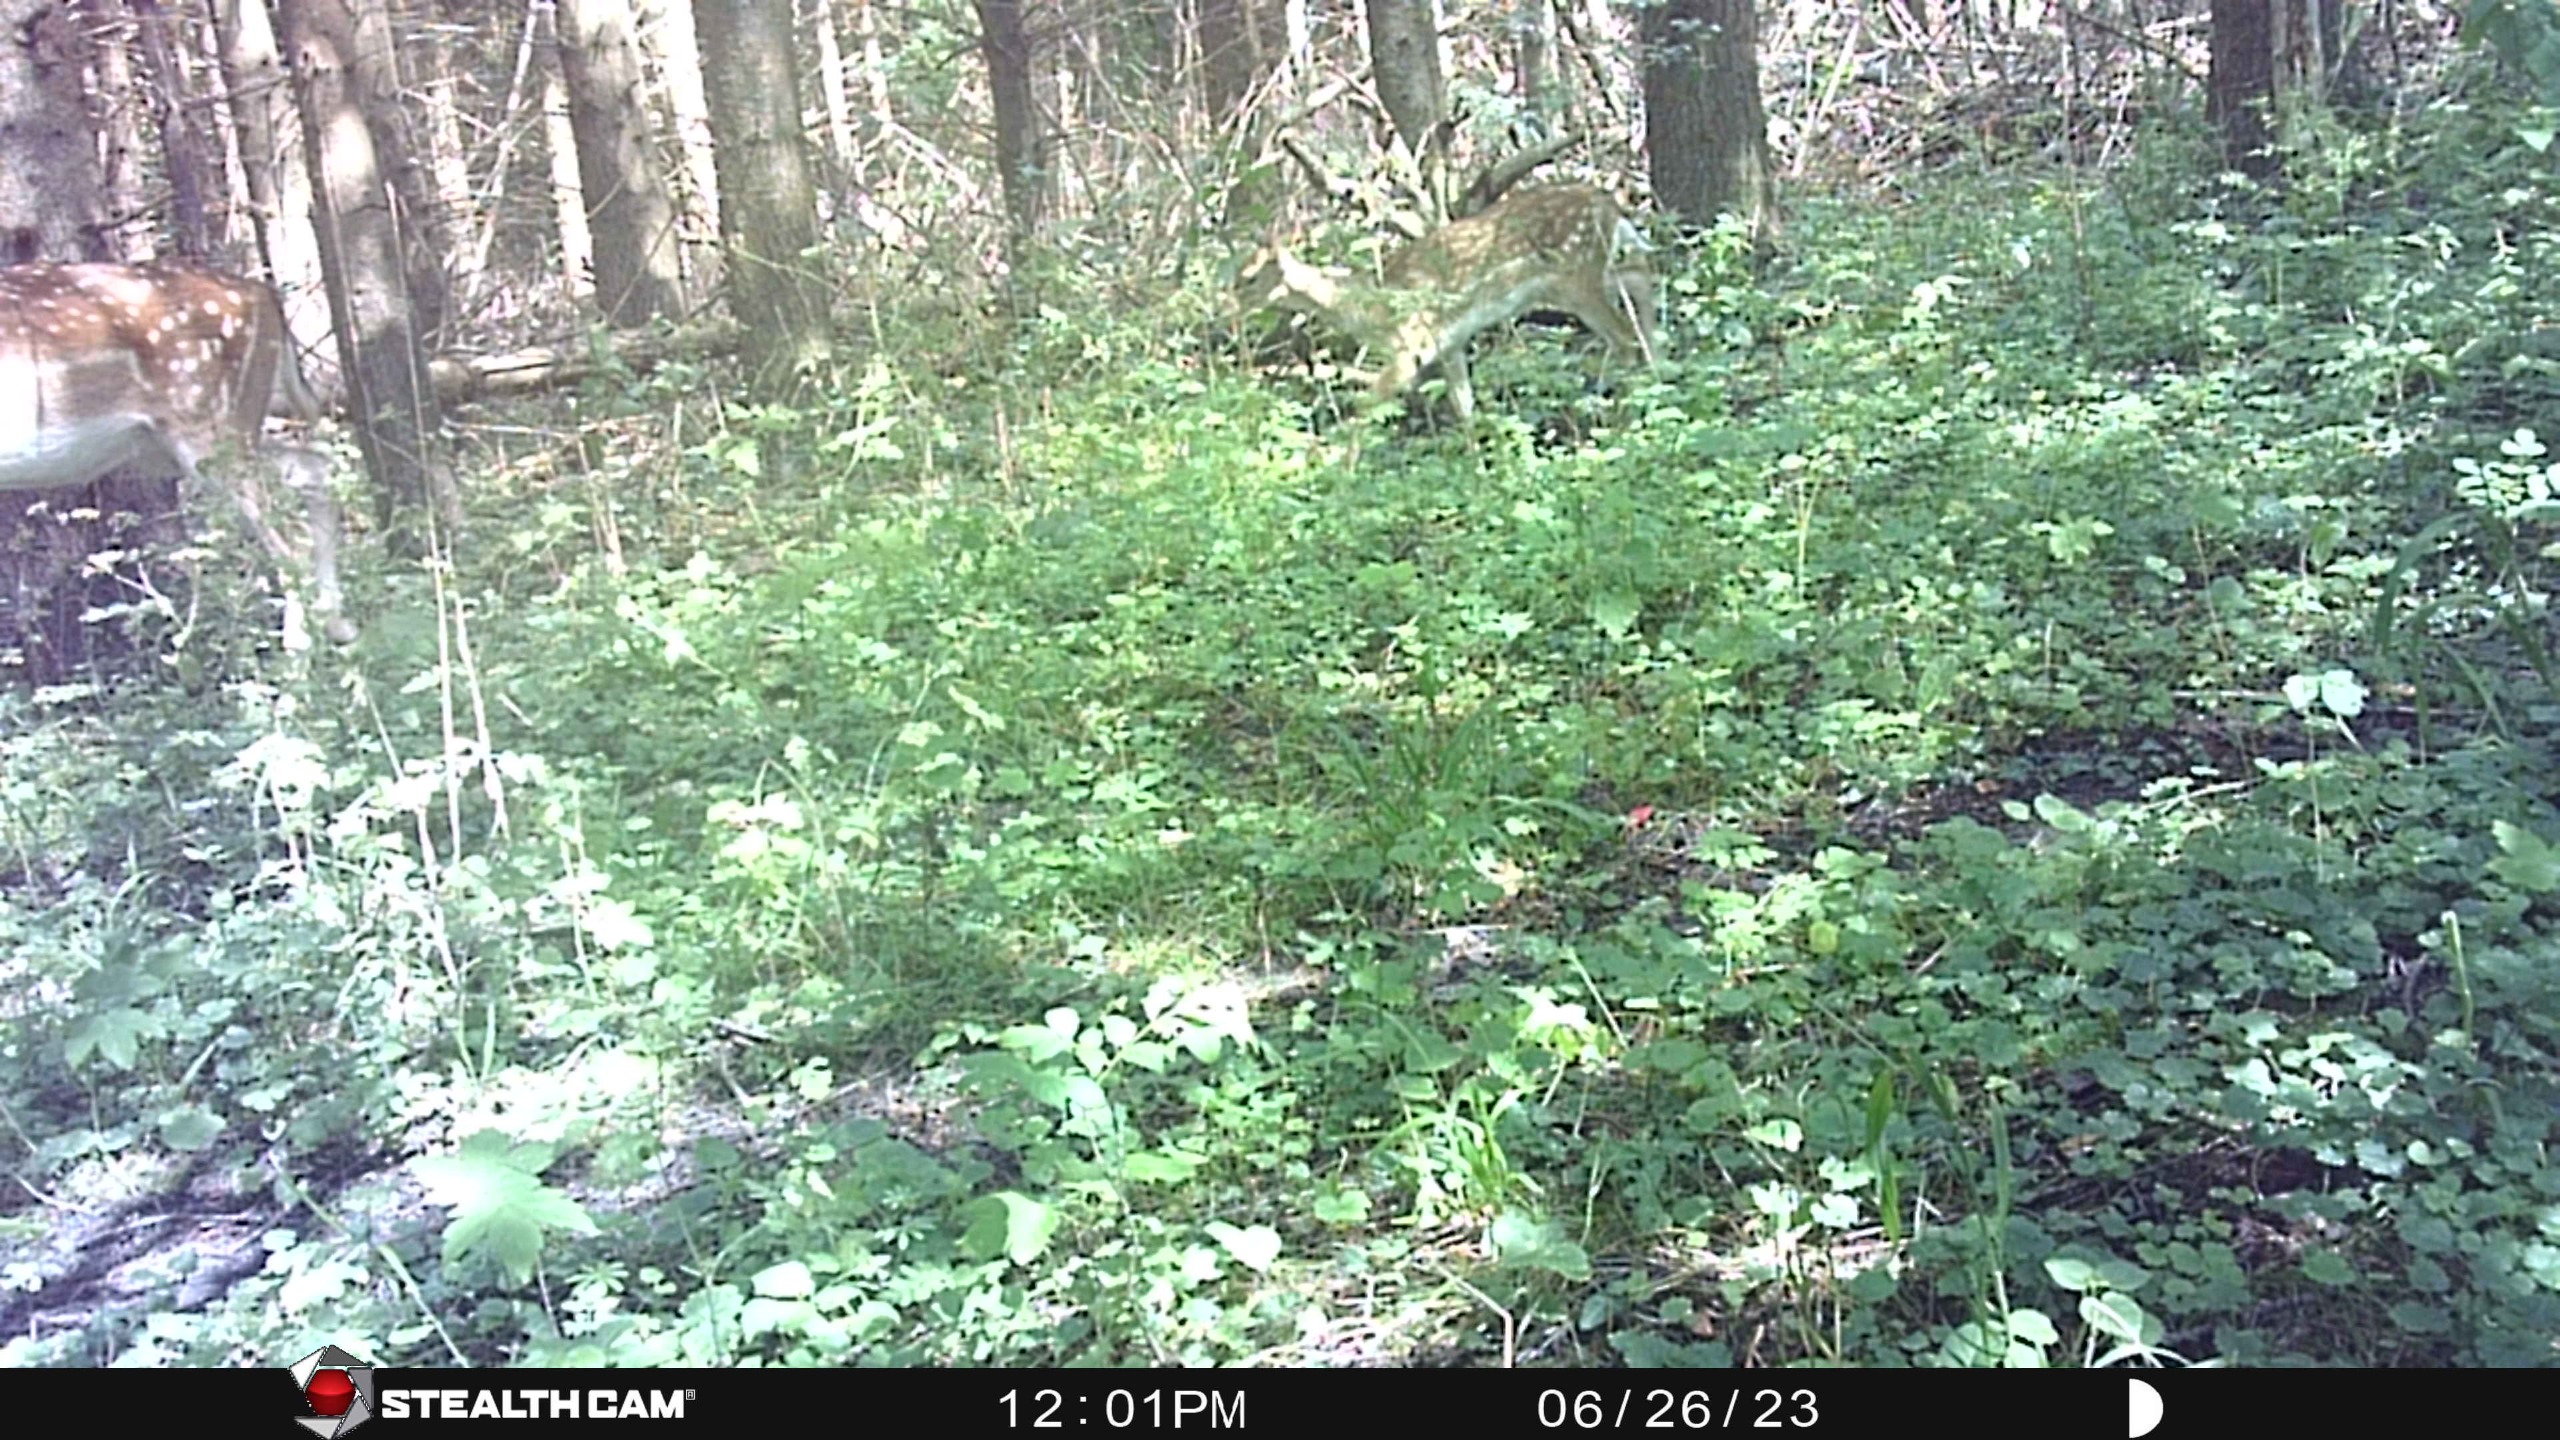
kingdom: Animalia
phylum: Chordata
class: Mammalia
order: Artiodactyla
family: Cervidae
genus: Dama
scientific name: Dama dama
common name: Dådyr
